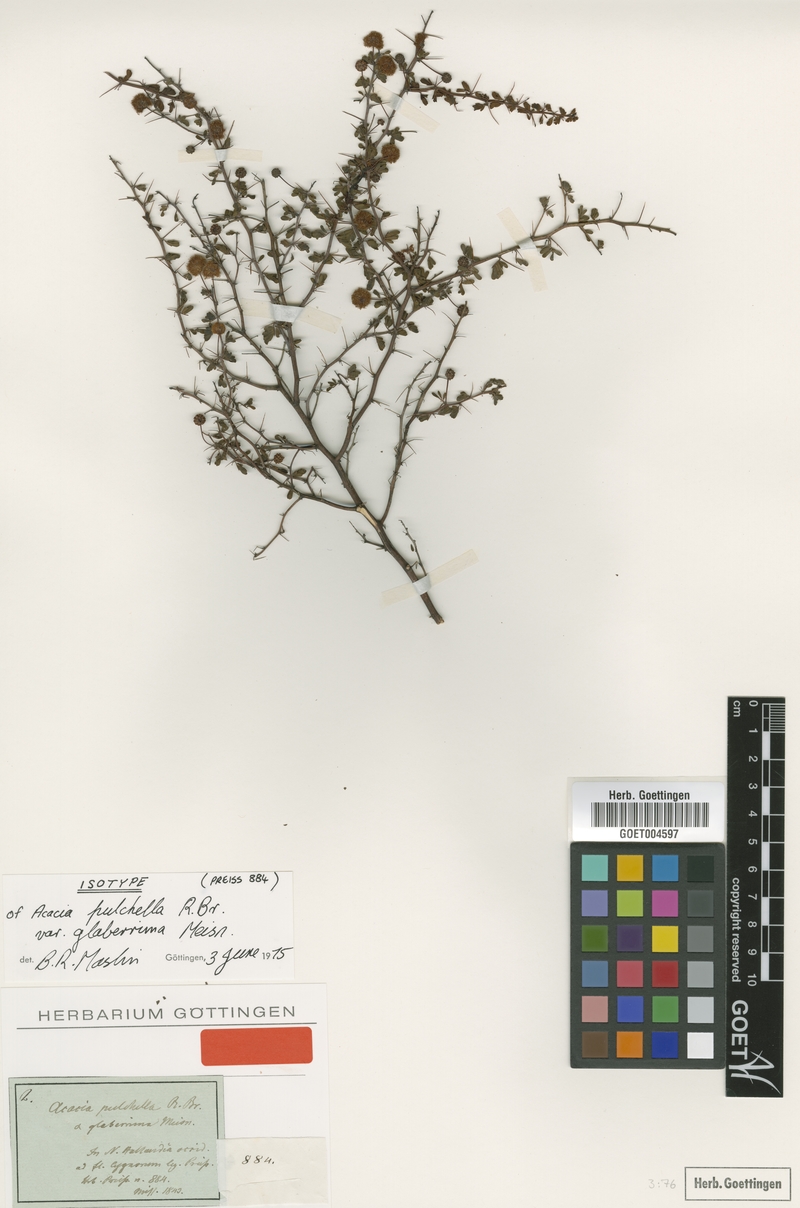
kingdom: Plantae
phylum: Tracheophyta
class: Magnoliopsida
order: Fabales
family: Fabaceae
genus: Acacia
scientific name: Acacia pulchella
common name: Prickly moses
